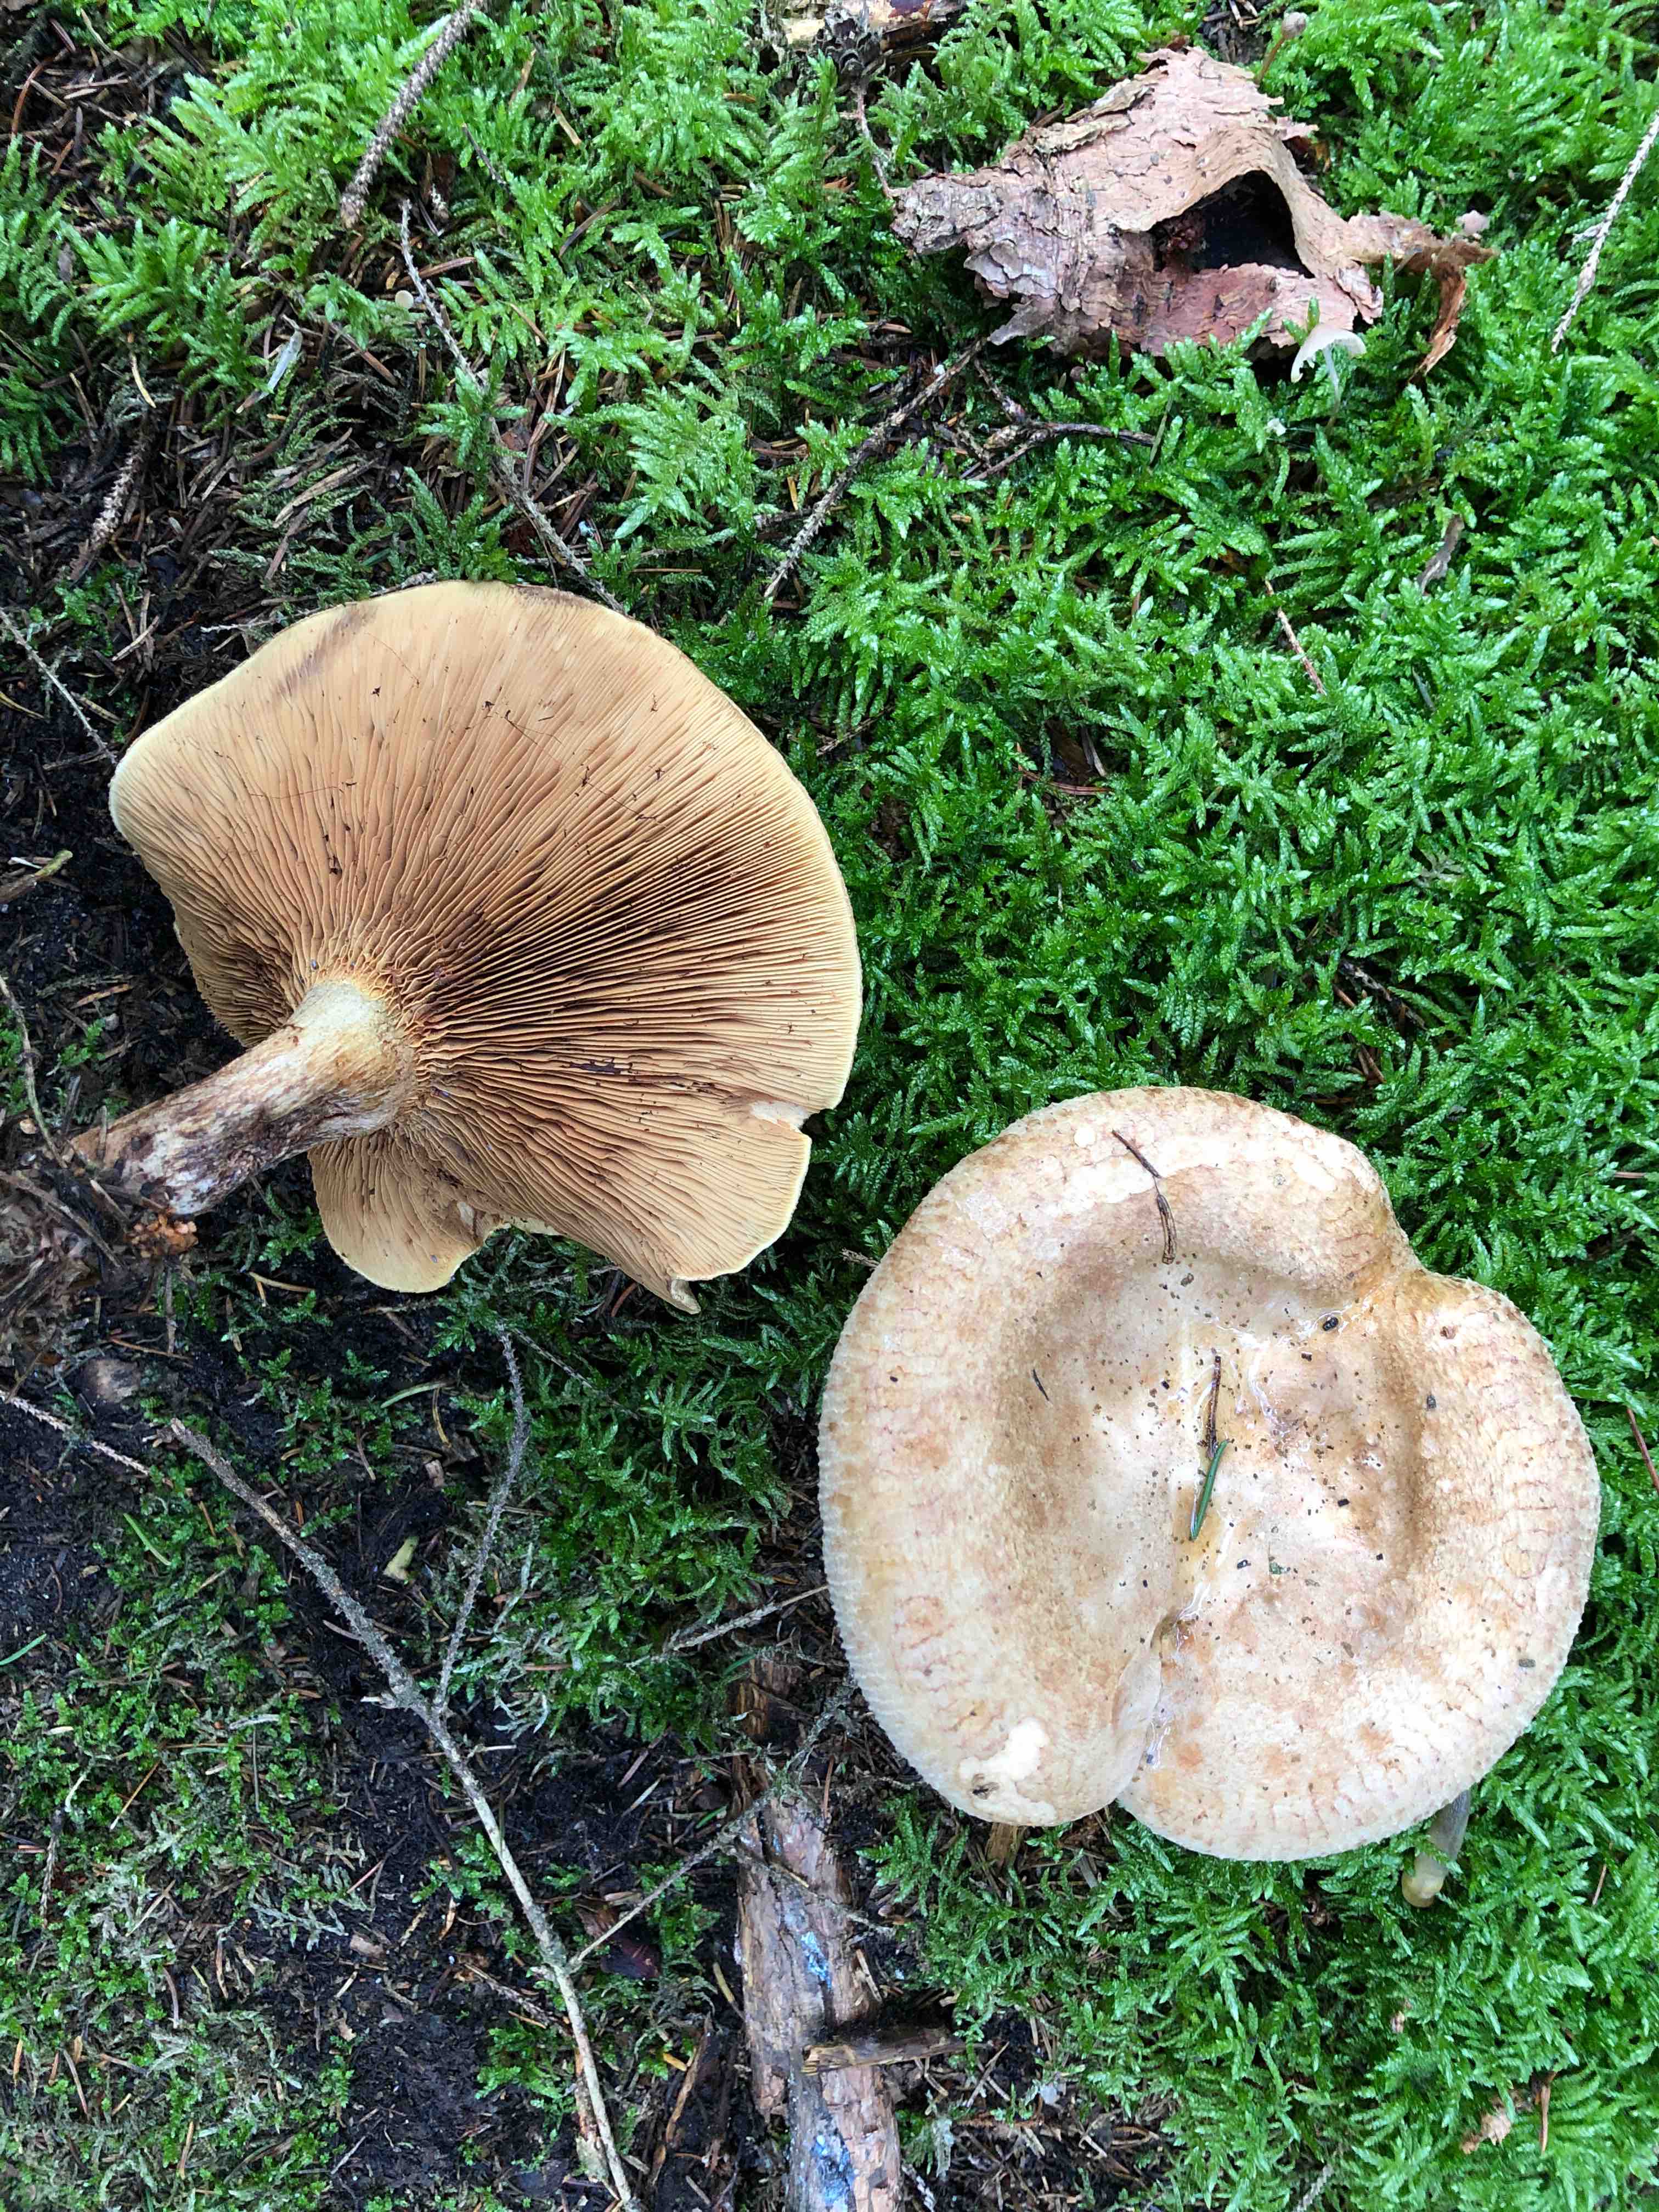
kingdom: Fungi
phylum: Basidiomycota
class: Agaricomycetes
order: Boletales
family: Paxillaceae
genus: Paxillus
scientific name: Paxillus involutus
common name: almindelig netbladhat
